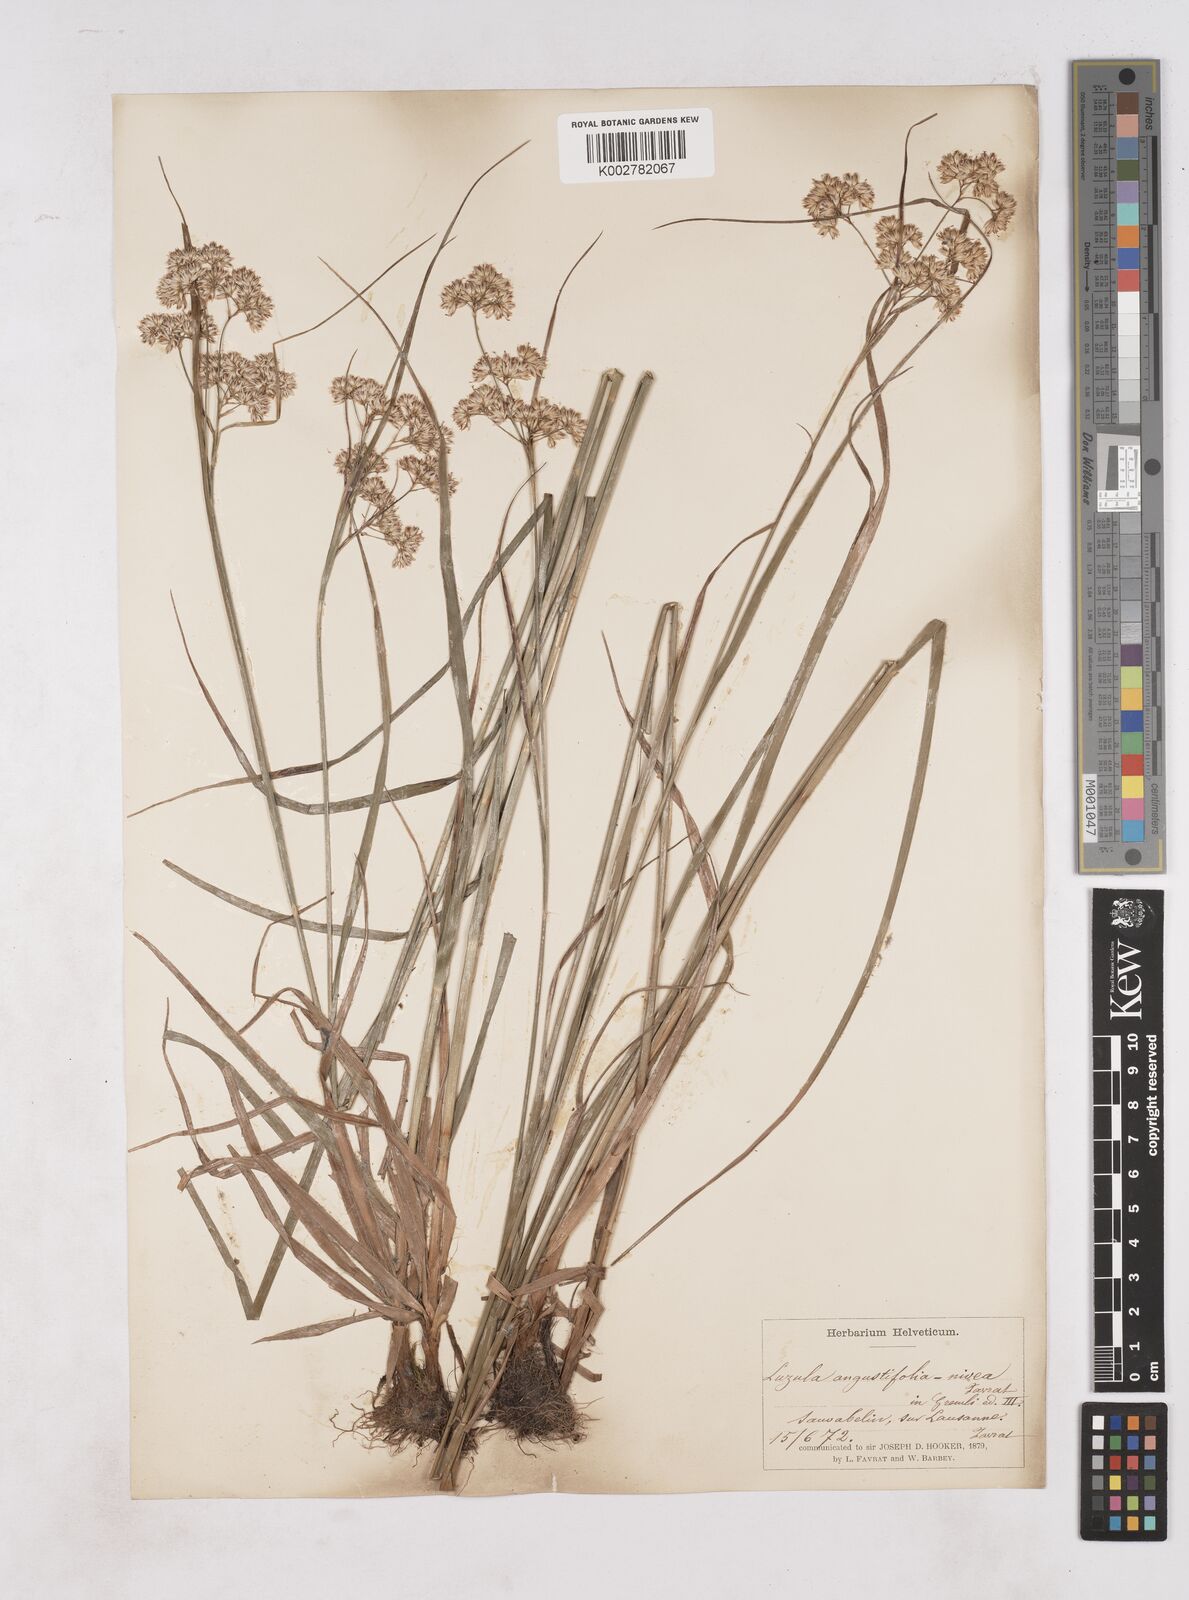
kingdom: Plantae
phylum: Tracheophyta
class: Liliopsida
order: Poales
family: Juncaceae
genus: Luzula
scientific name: Luzula nivea
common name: Snow-white wood-rush
